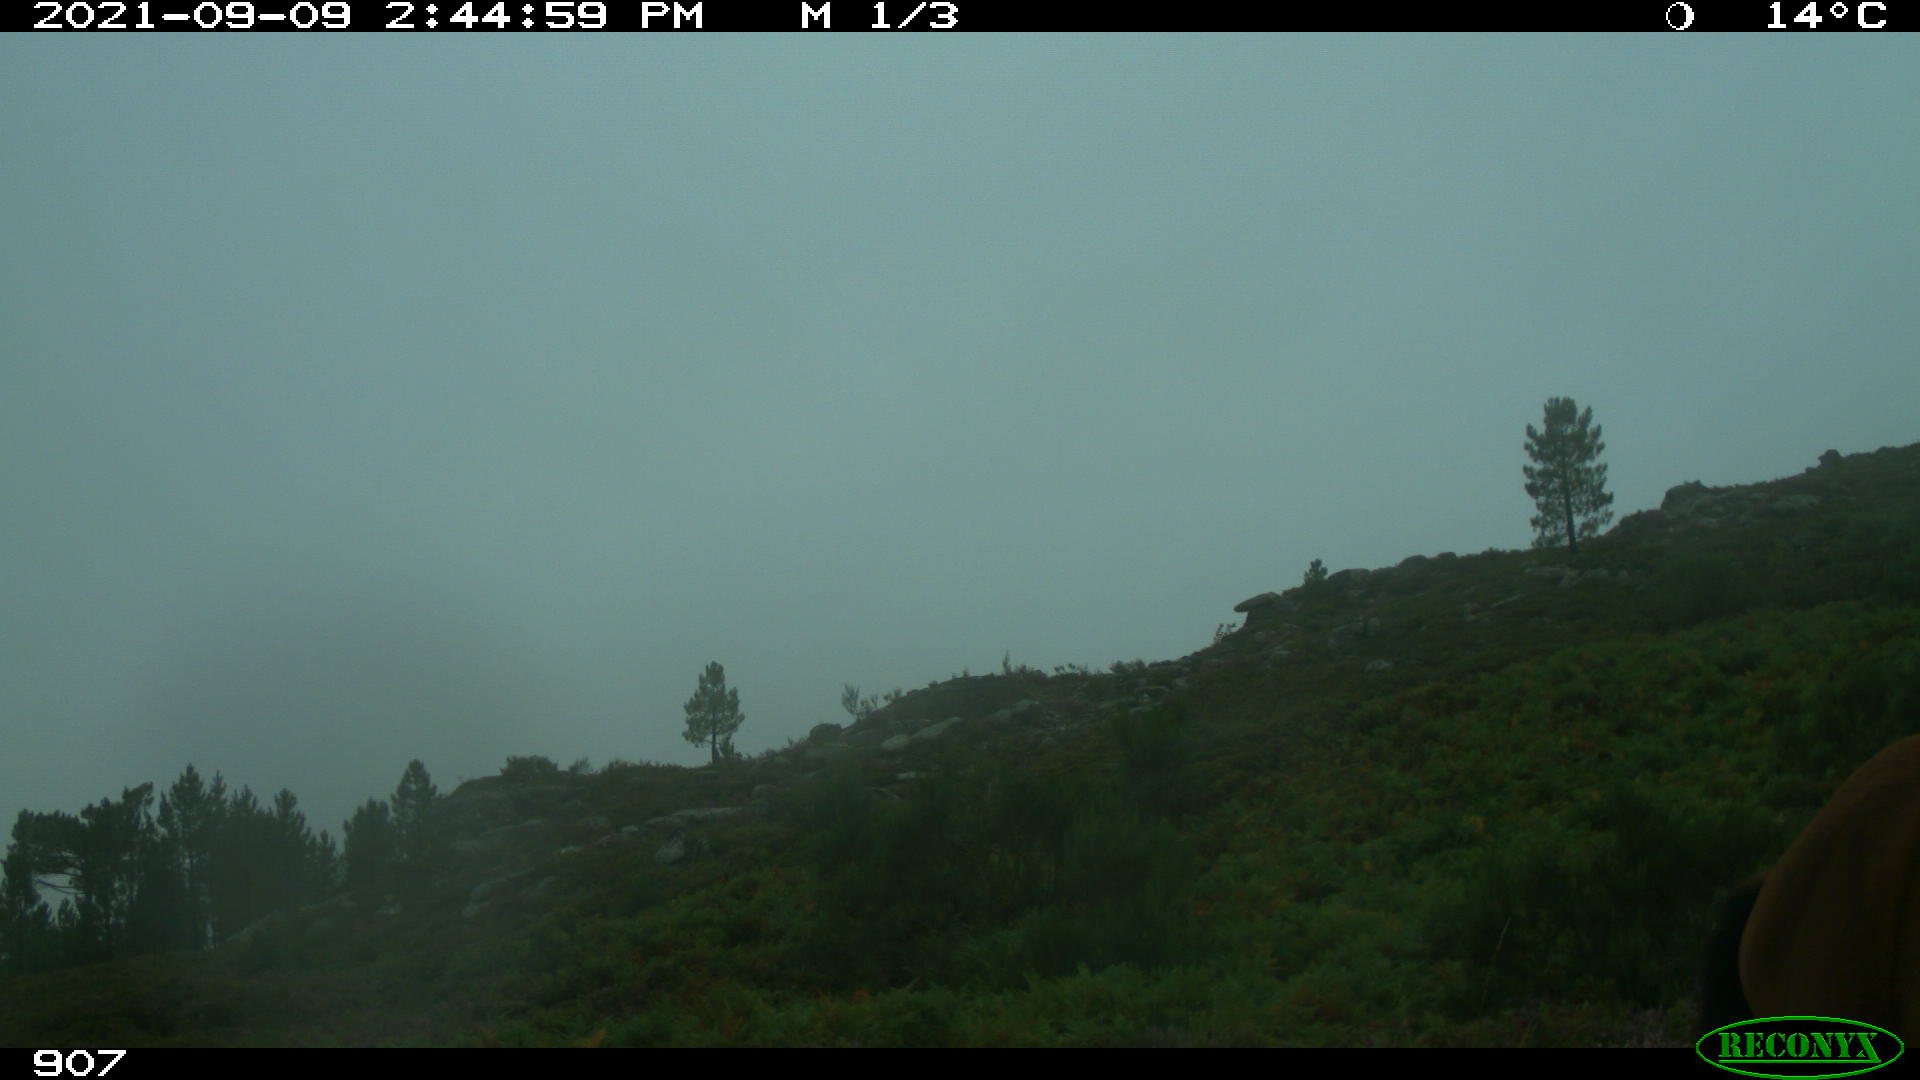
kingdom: Animalia
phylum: Chordata
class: Mammalia
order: Perissodactyla
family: Equidae
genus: Equus
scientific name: Equus caballus
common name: Horse
